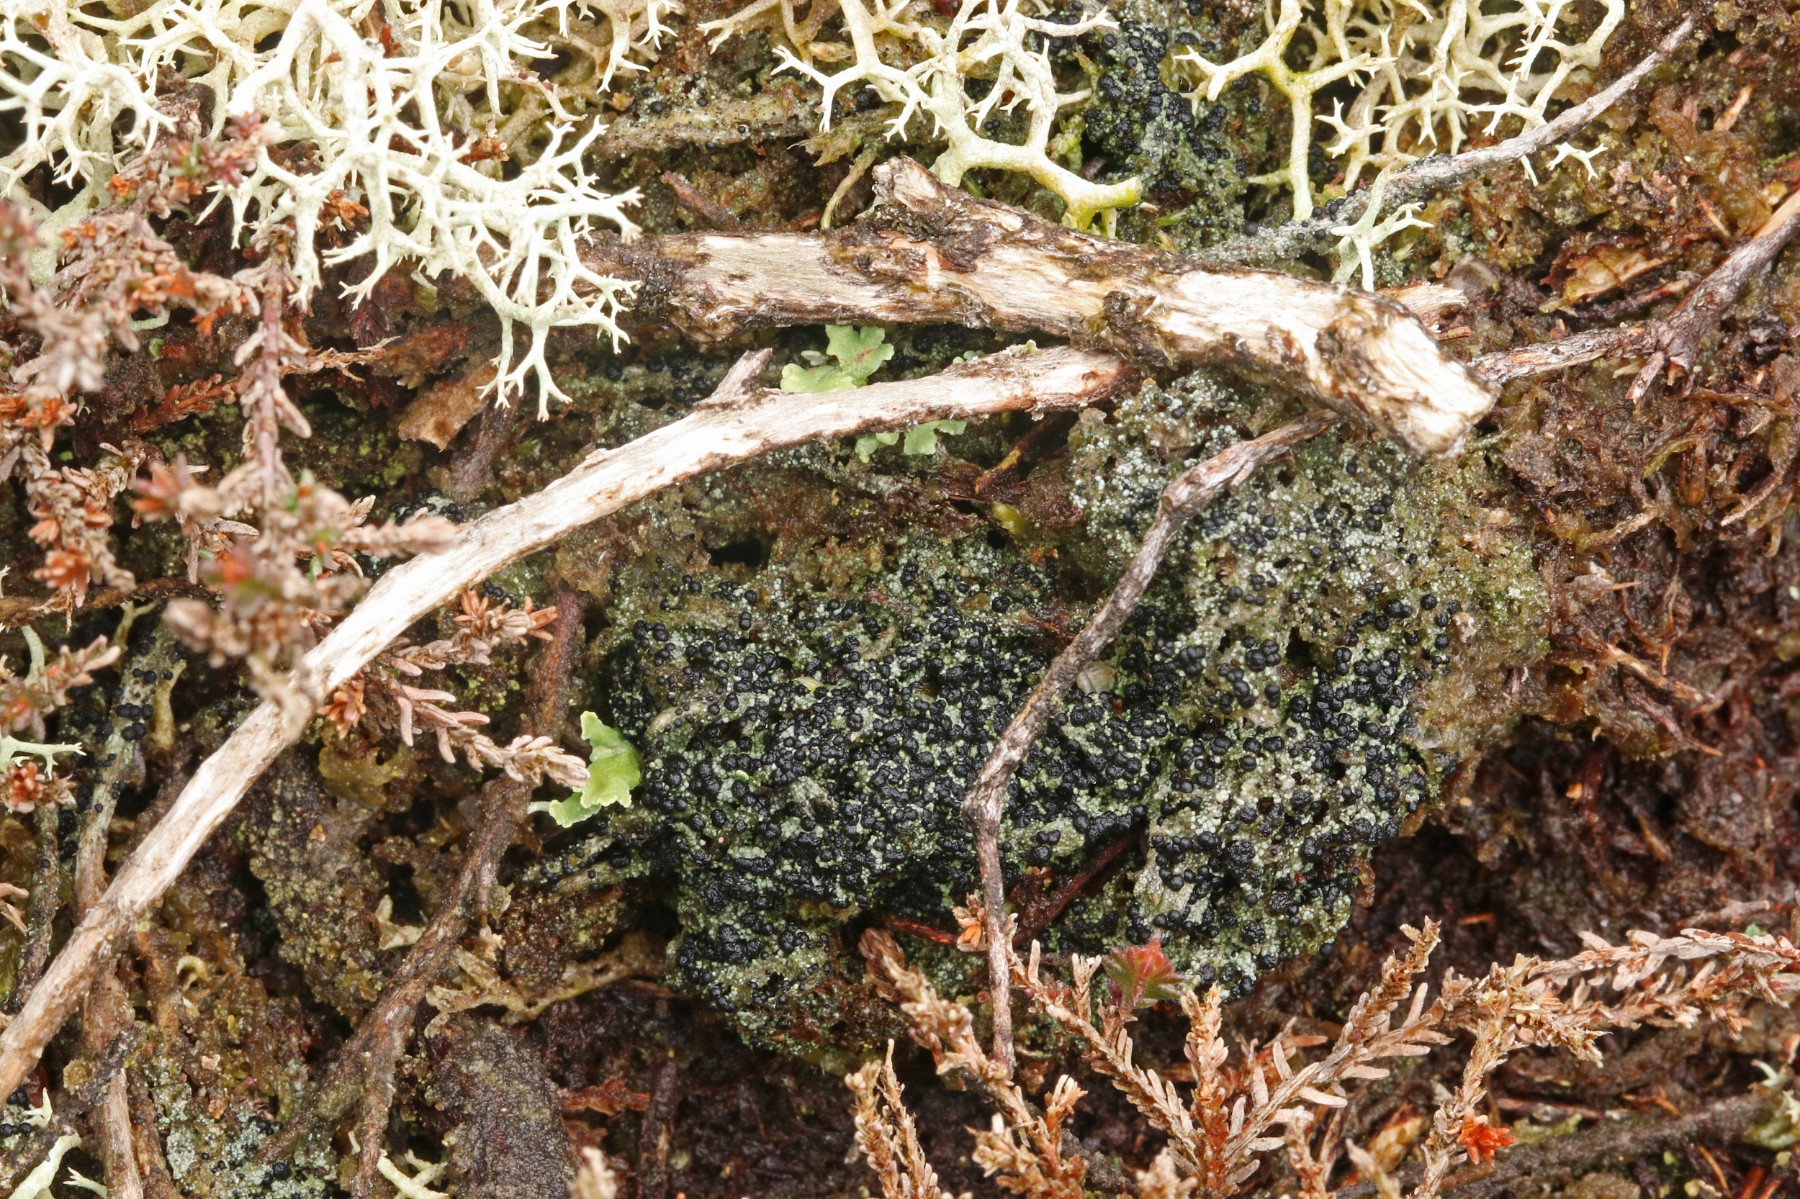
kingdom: Fungi
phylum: Ascomycota
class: Lecanoromycetes
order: Lecanorales
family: Byssolomataceae
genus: Micarea
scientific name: Micarea lignaria
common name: tørve-knaplav
